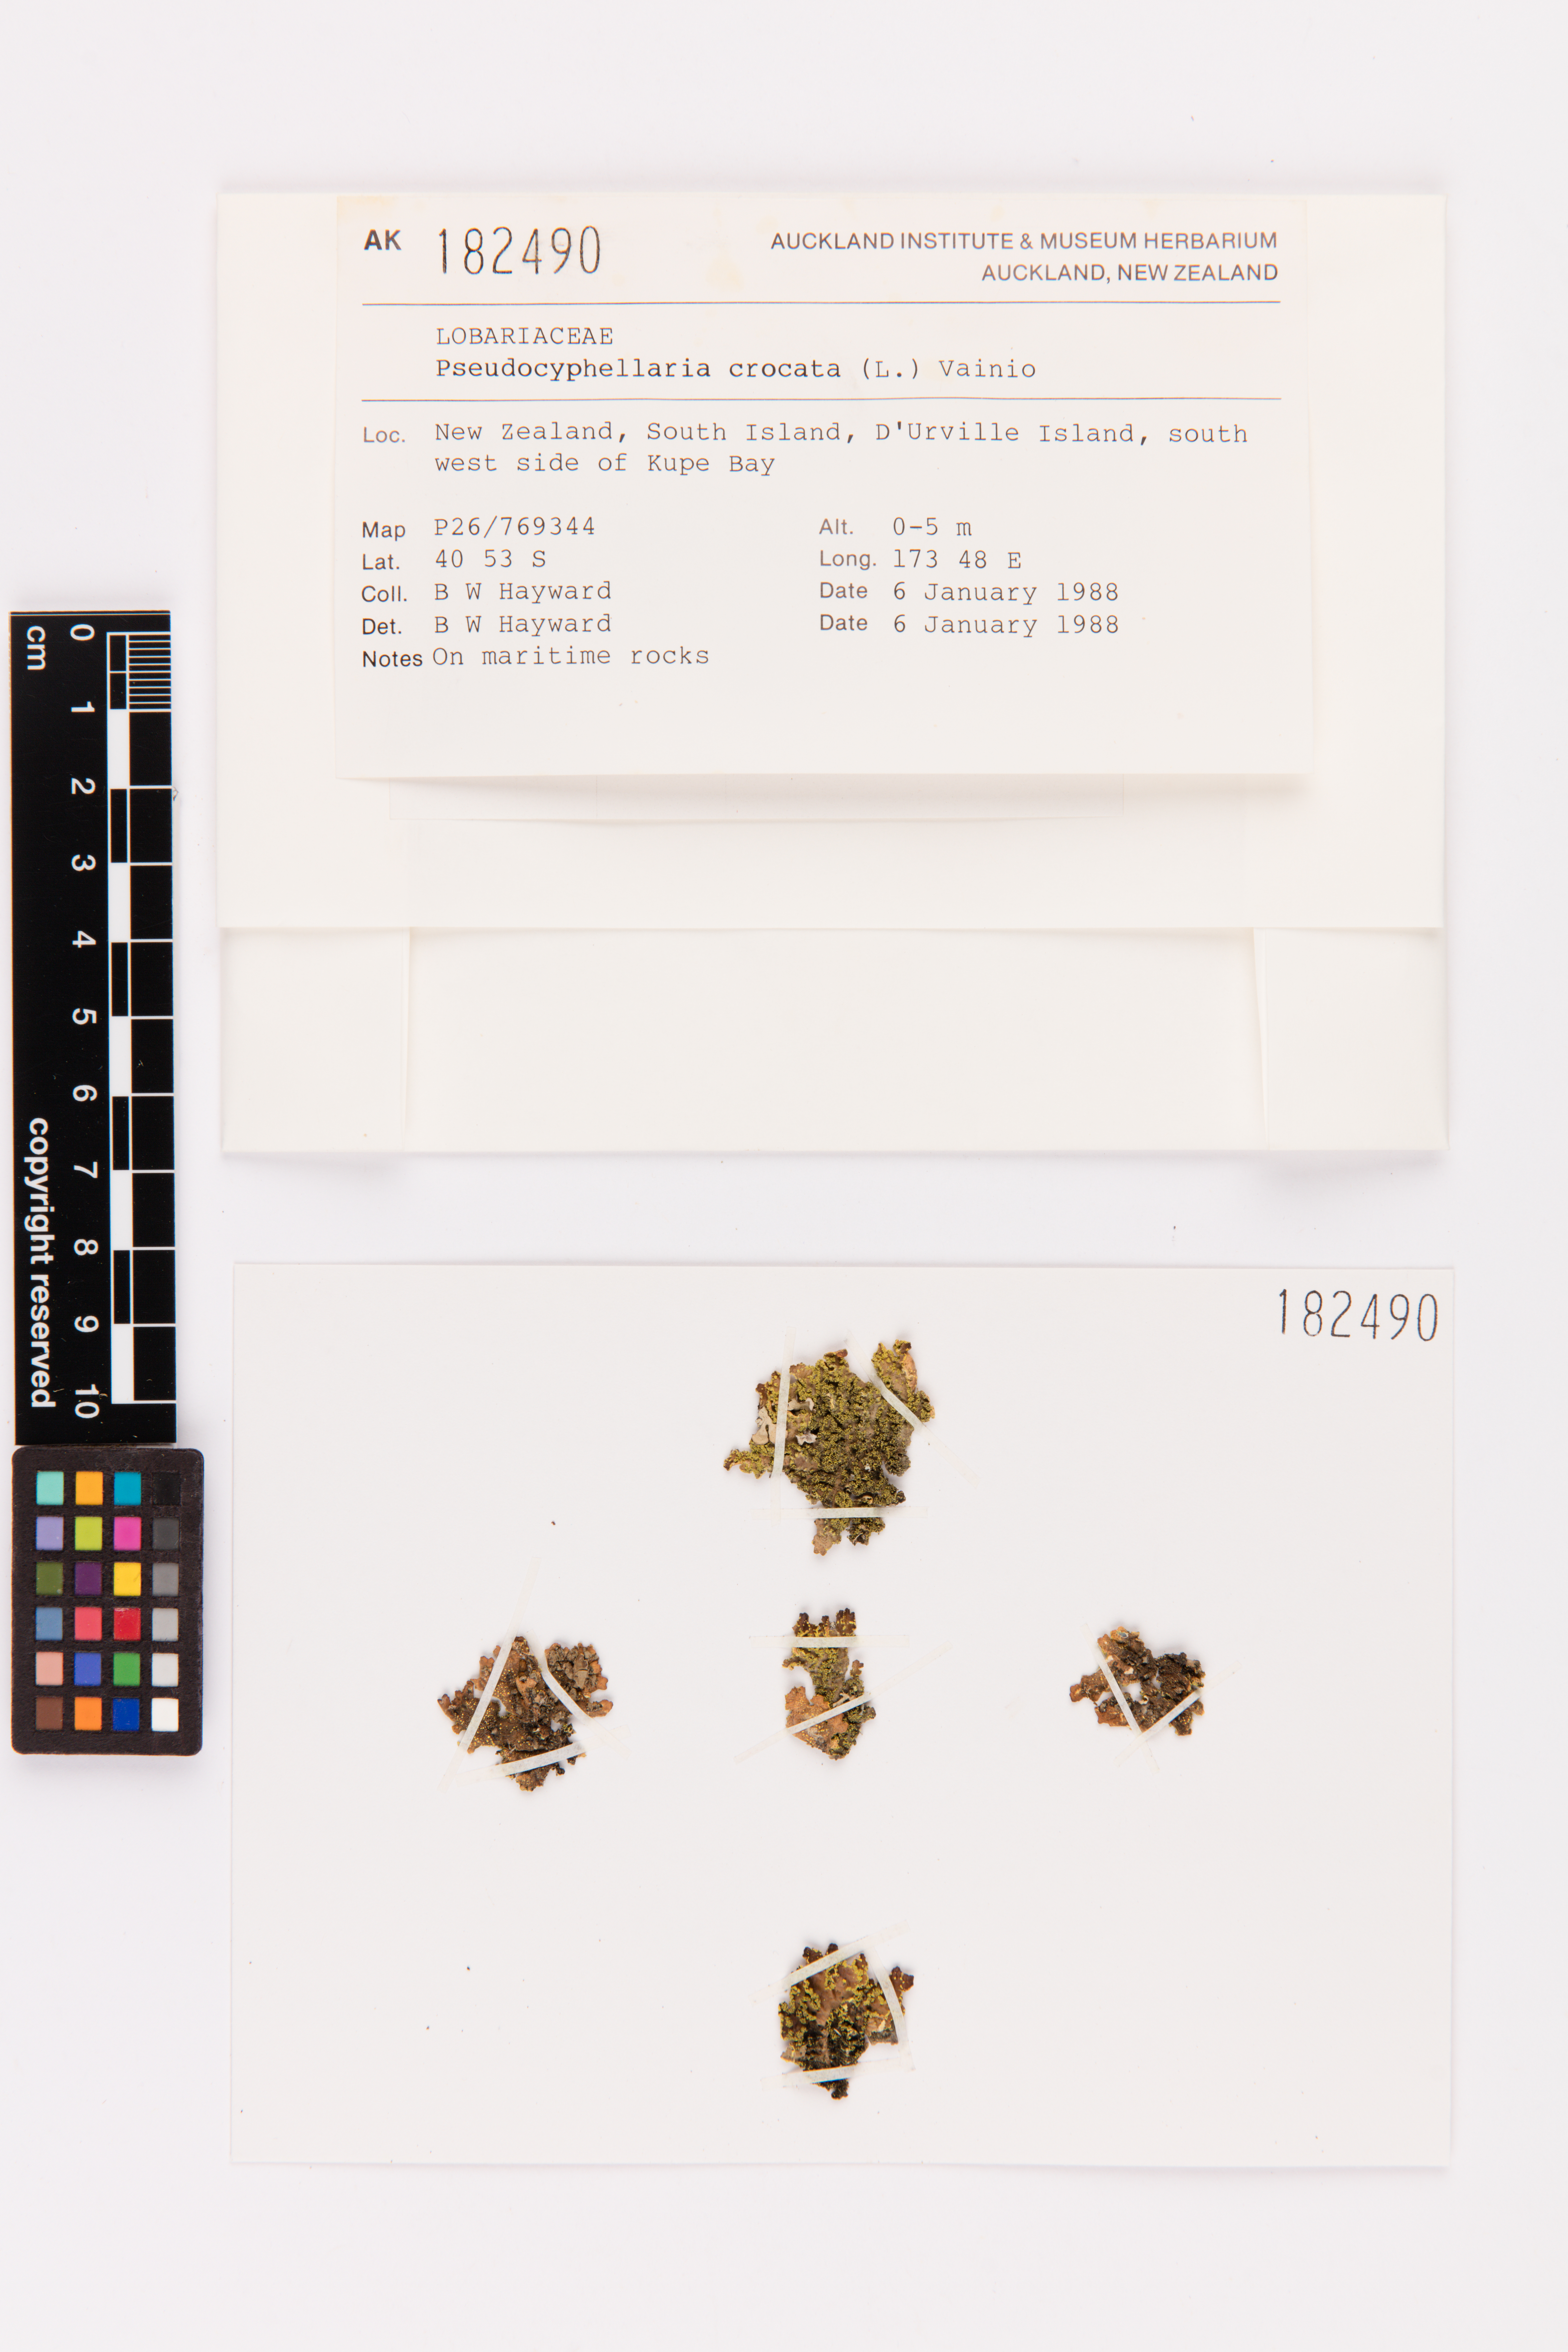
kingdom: Fungi
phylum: Ascomycota
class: Lecanoromycetes
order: Peltigerales
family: Lobariaceae
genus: Pseudocyphellaria
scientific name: Pseudocyphellaria crocata
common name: Golden specklebelly
